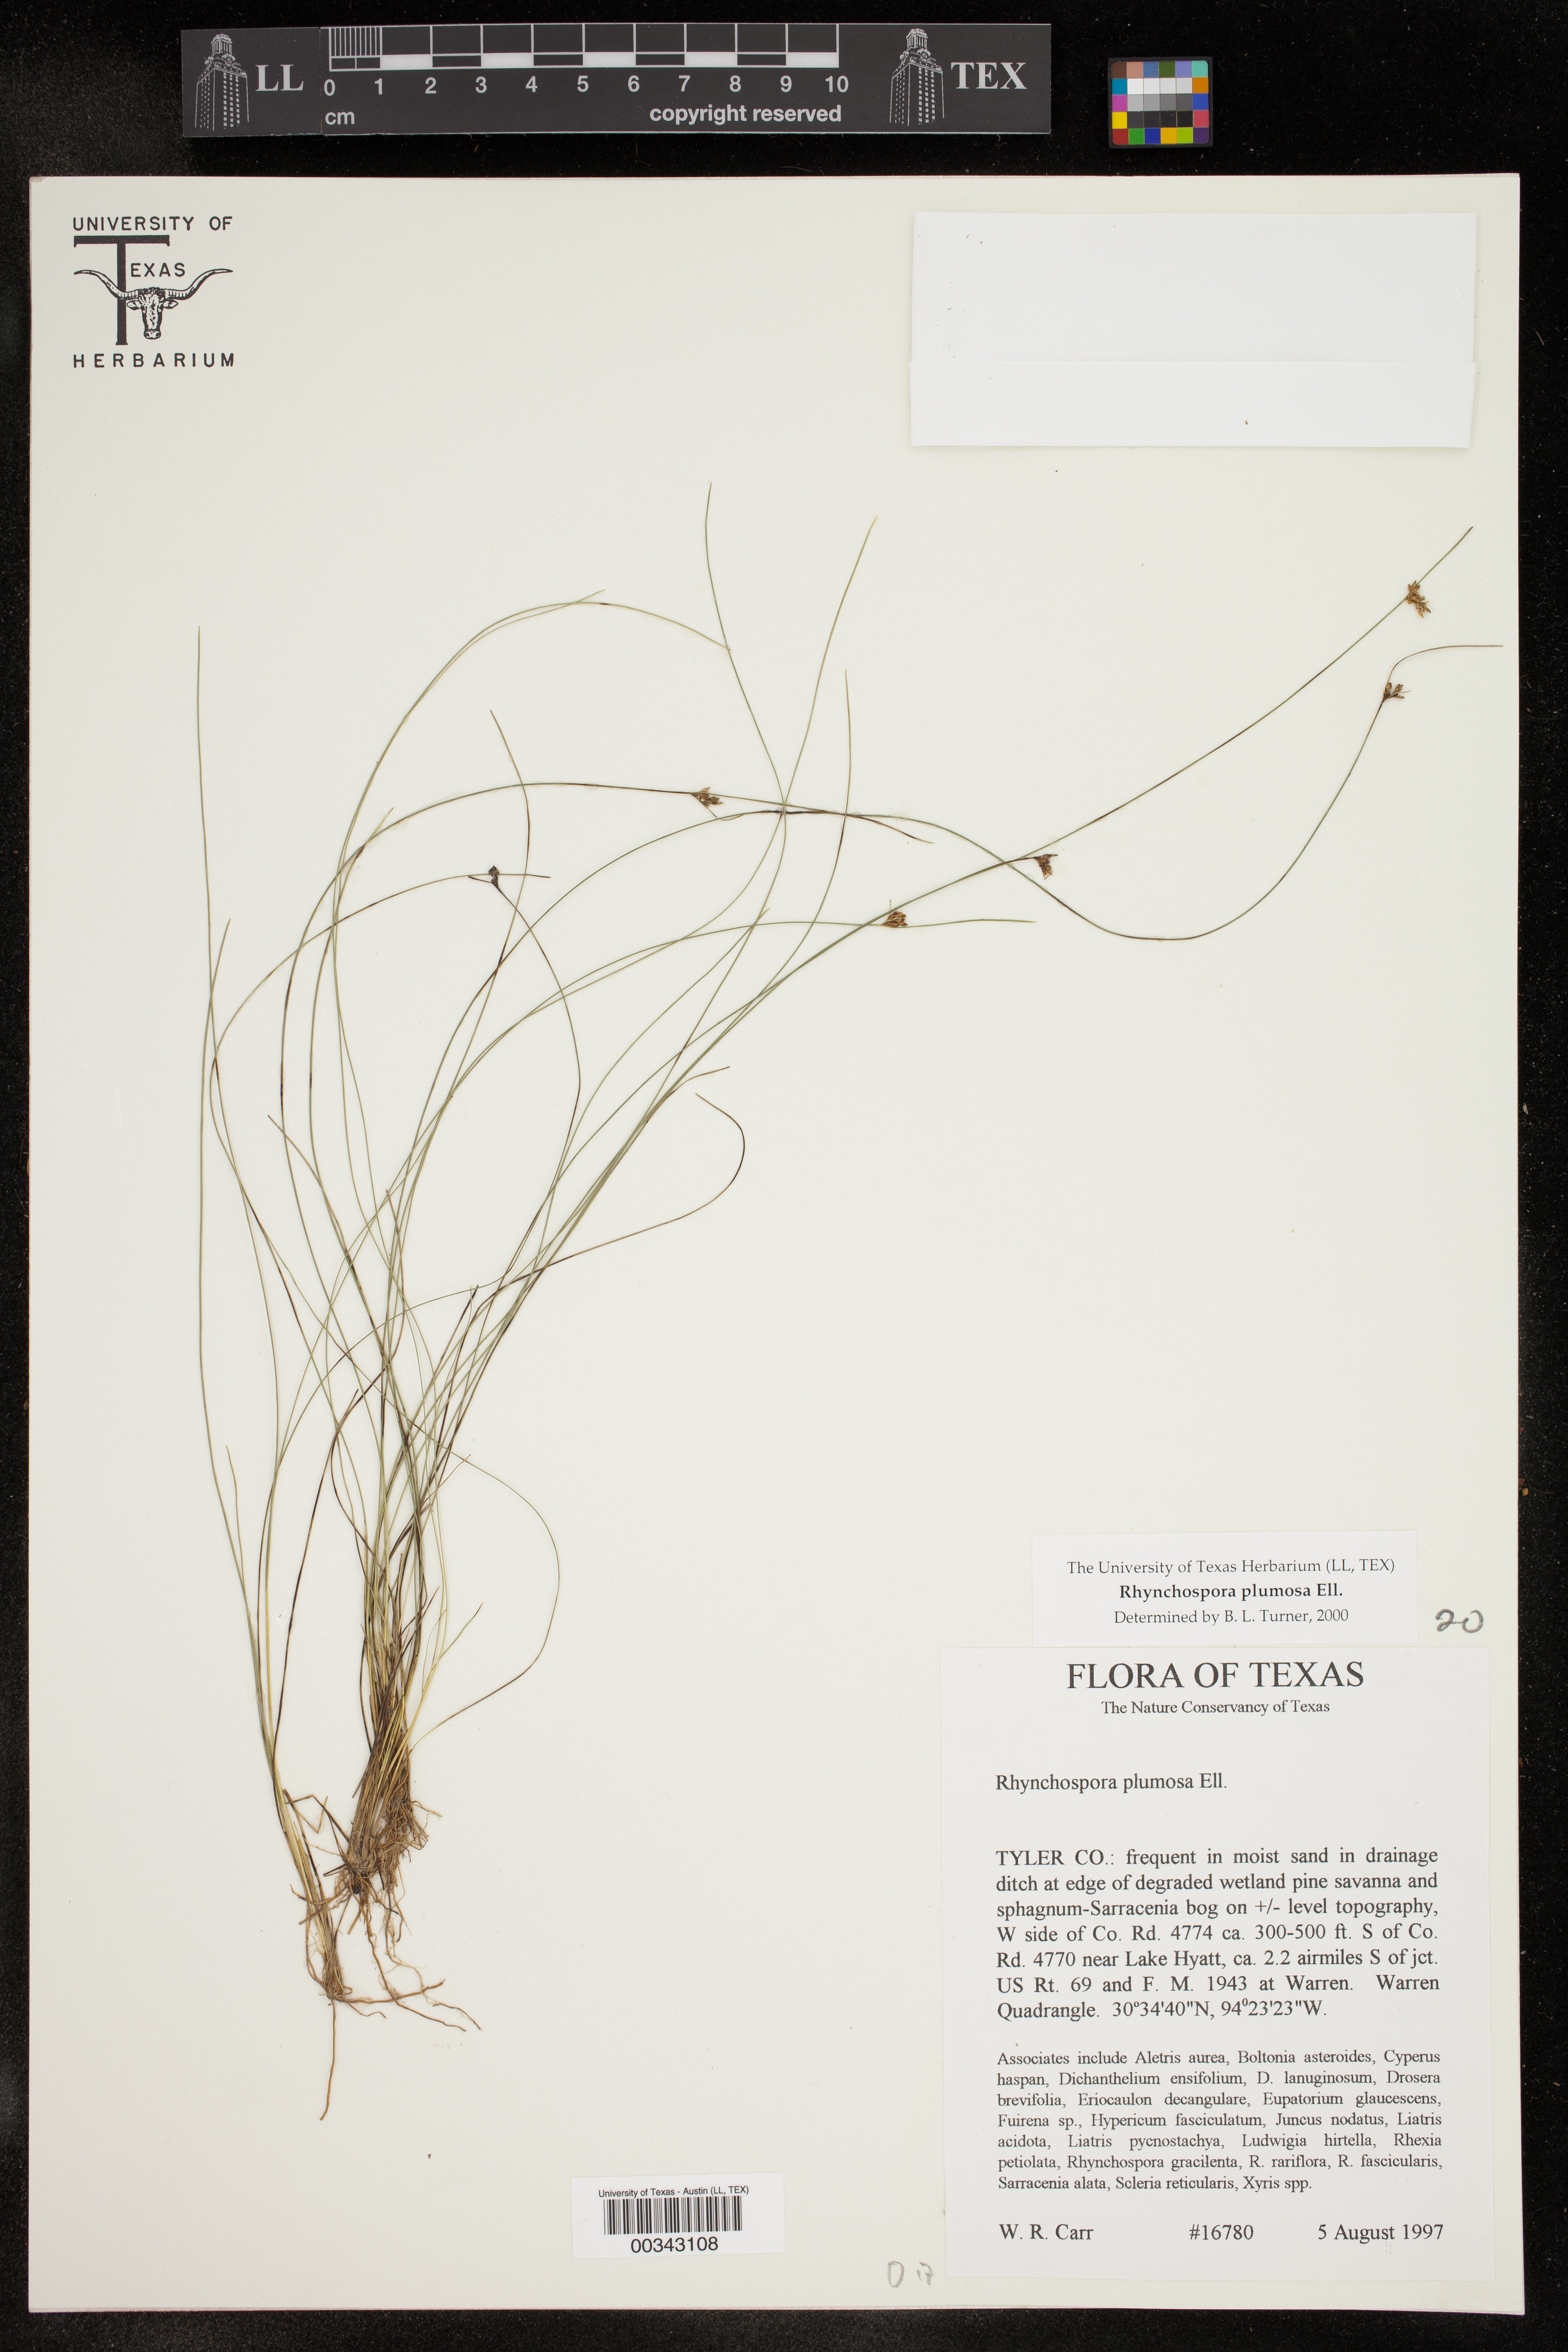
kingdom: Plantae
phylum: Tracheophyta
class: Liliopsida
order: Poales
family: Cyperaceae
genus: Rhynchospora
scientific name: Rhynchospora plumosa
